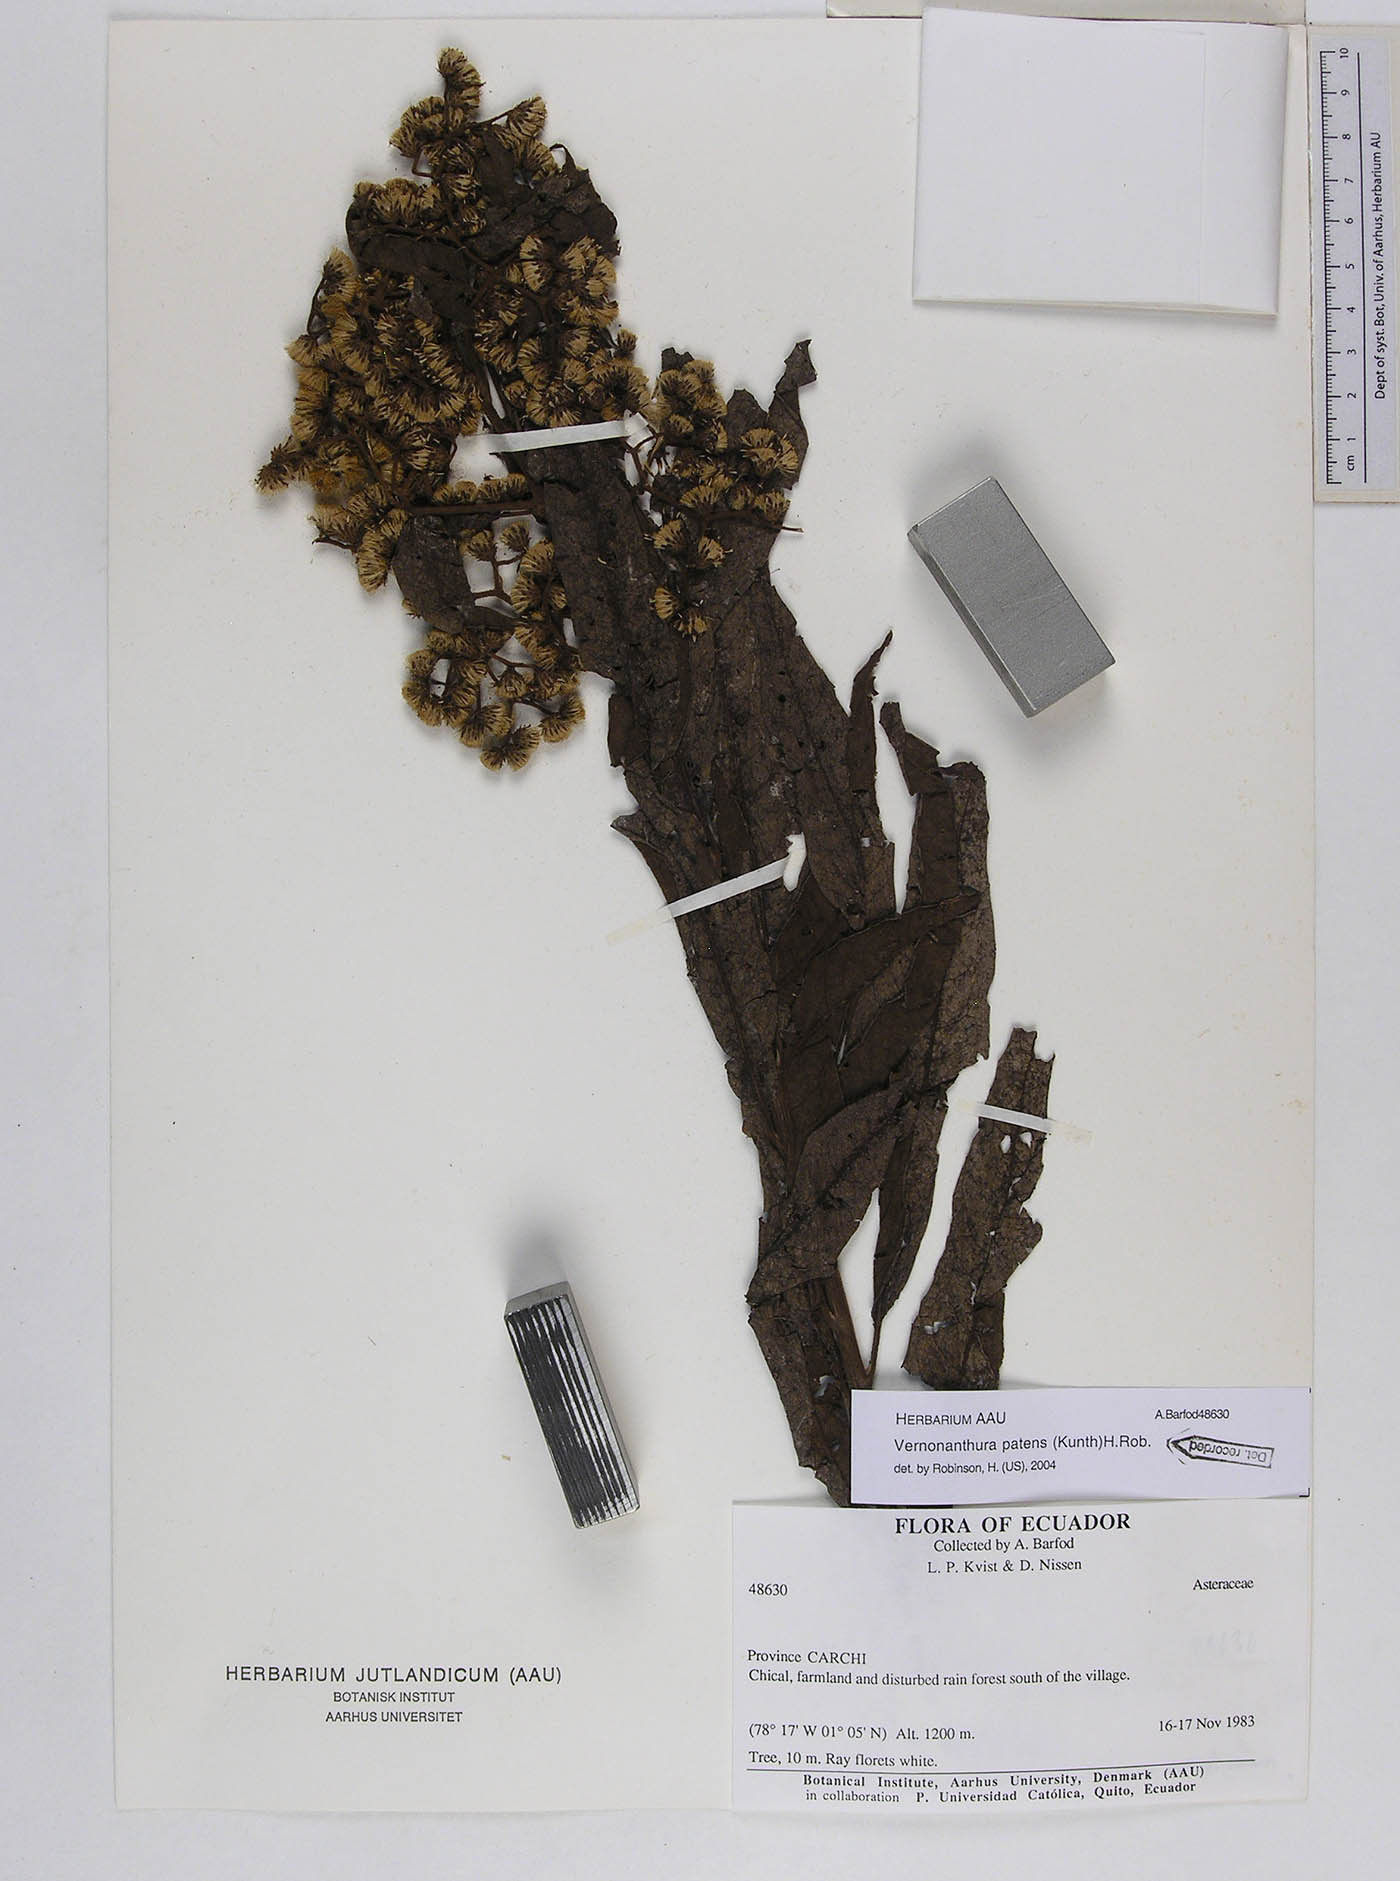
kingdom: Plantae
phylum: Tracheophyta
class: Magnoliopsida
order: Asterales
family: Asteraceae
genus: Vernonanthura
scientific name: Vernonanthura patens
